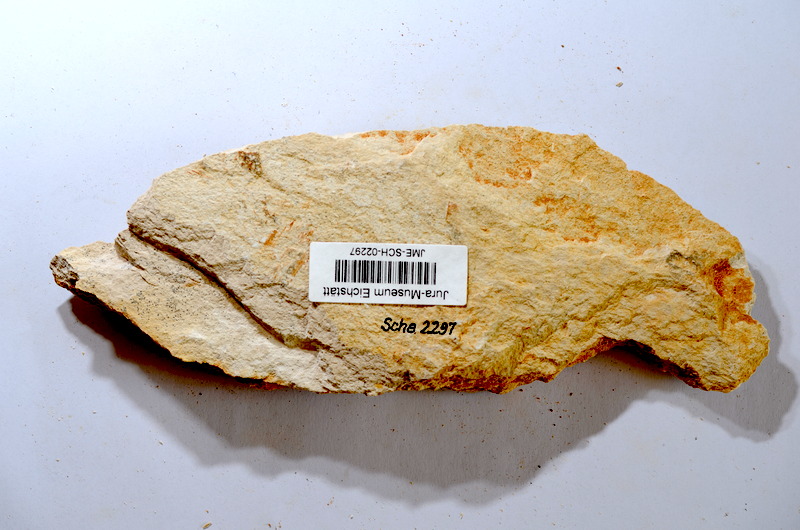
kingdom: Animalia
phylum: Chordata
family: Ascalaboidae
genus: Tharsis
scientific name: Tharsis dubius
